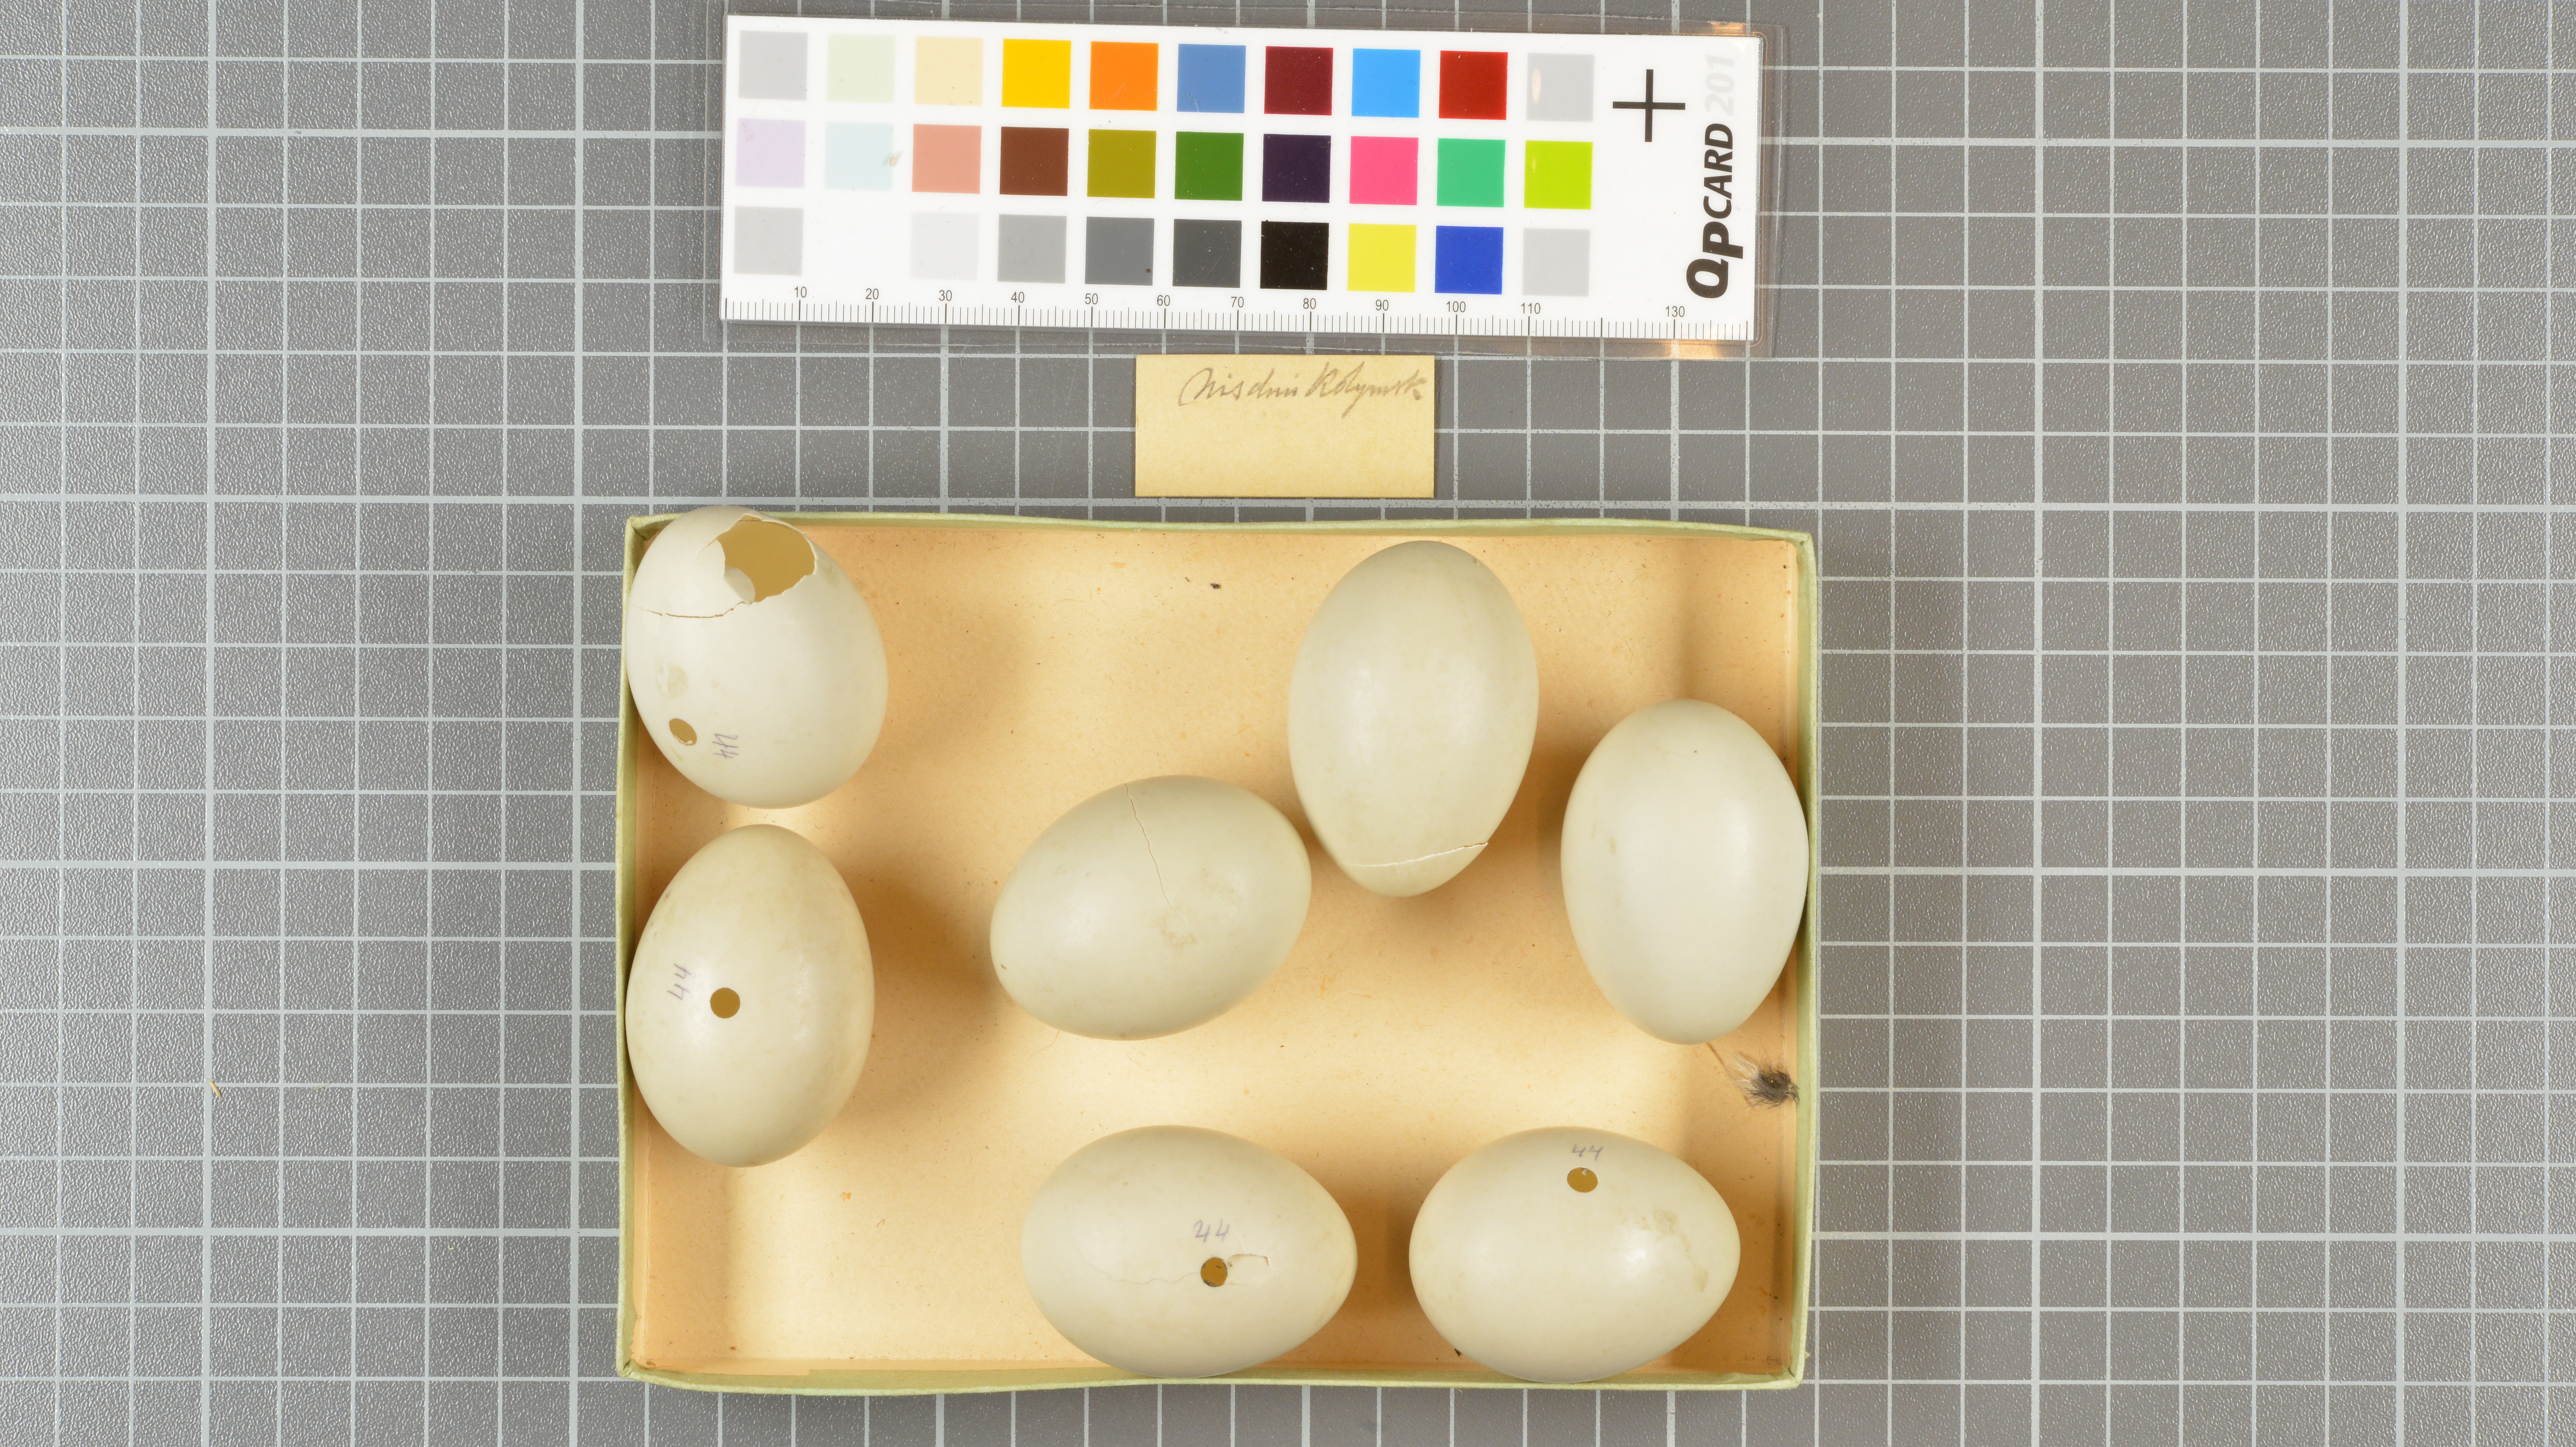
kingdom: Animalia
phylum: Chordata
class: Aves
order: Anseriformes
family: Anatidae
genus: Sibirionetta
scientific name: Sibirionetta formosa
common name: Baikal teal
